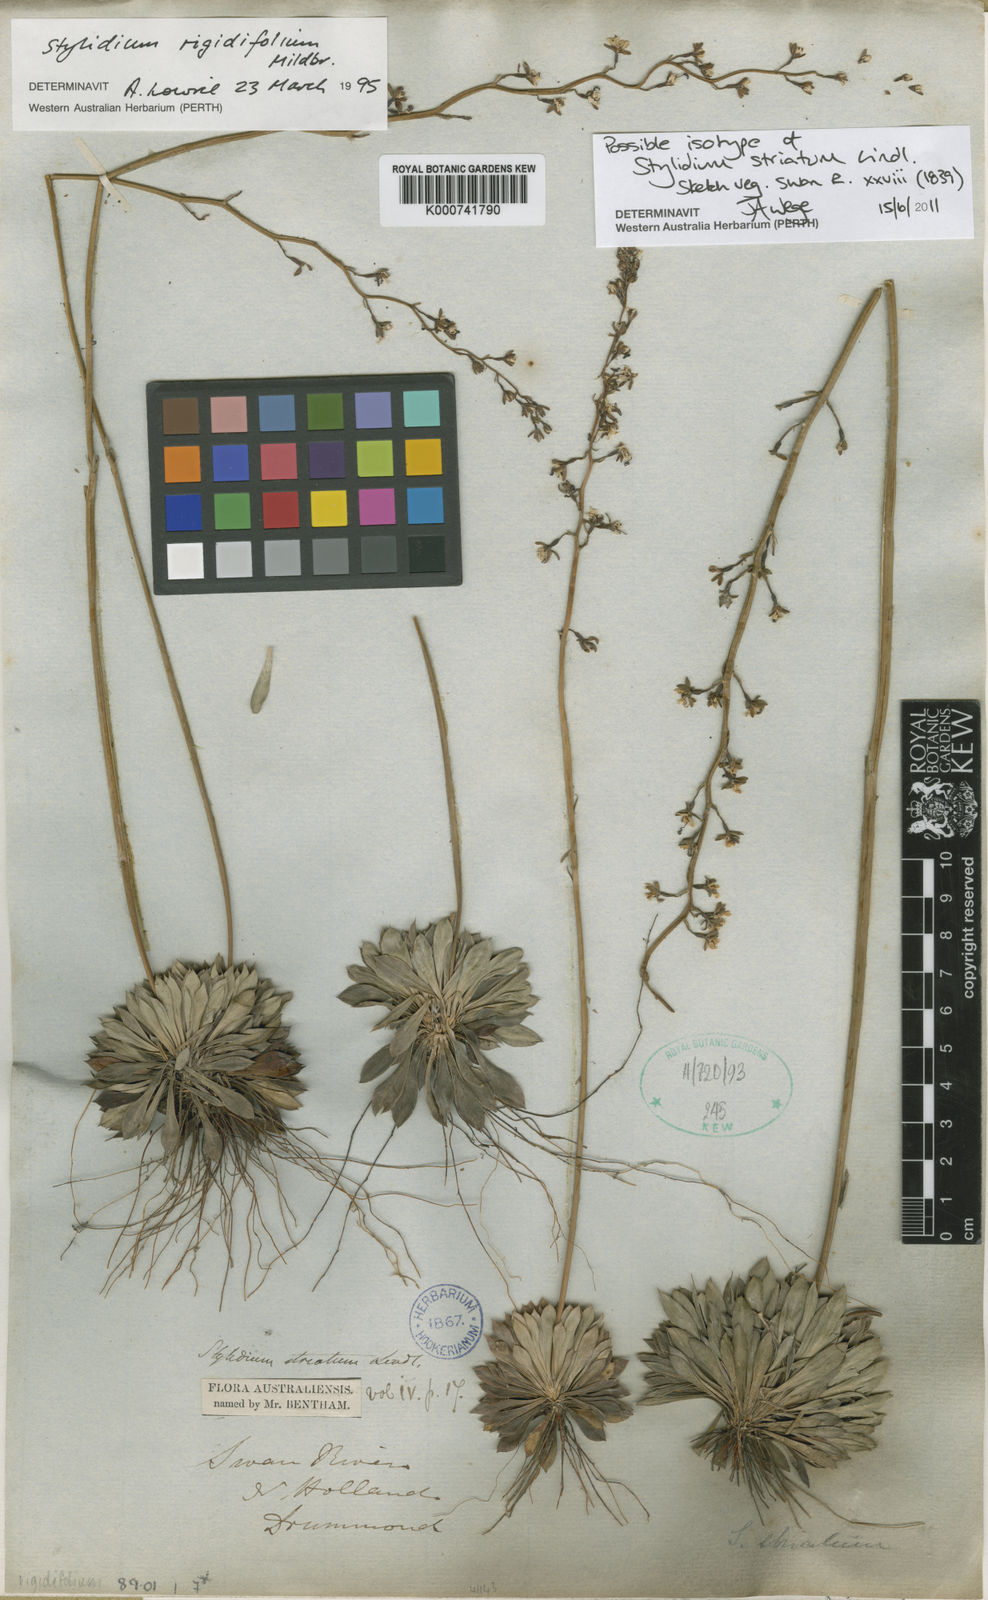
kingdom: Plantae
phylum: Tracheophyta
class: Magnoliopsida
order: Asterales
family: Stylidiaceae
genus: Stylidium
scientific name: Stylidium striatum
